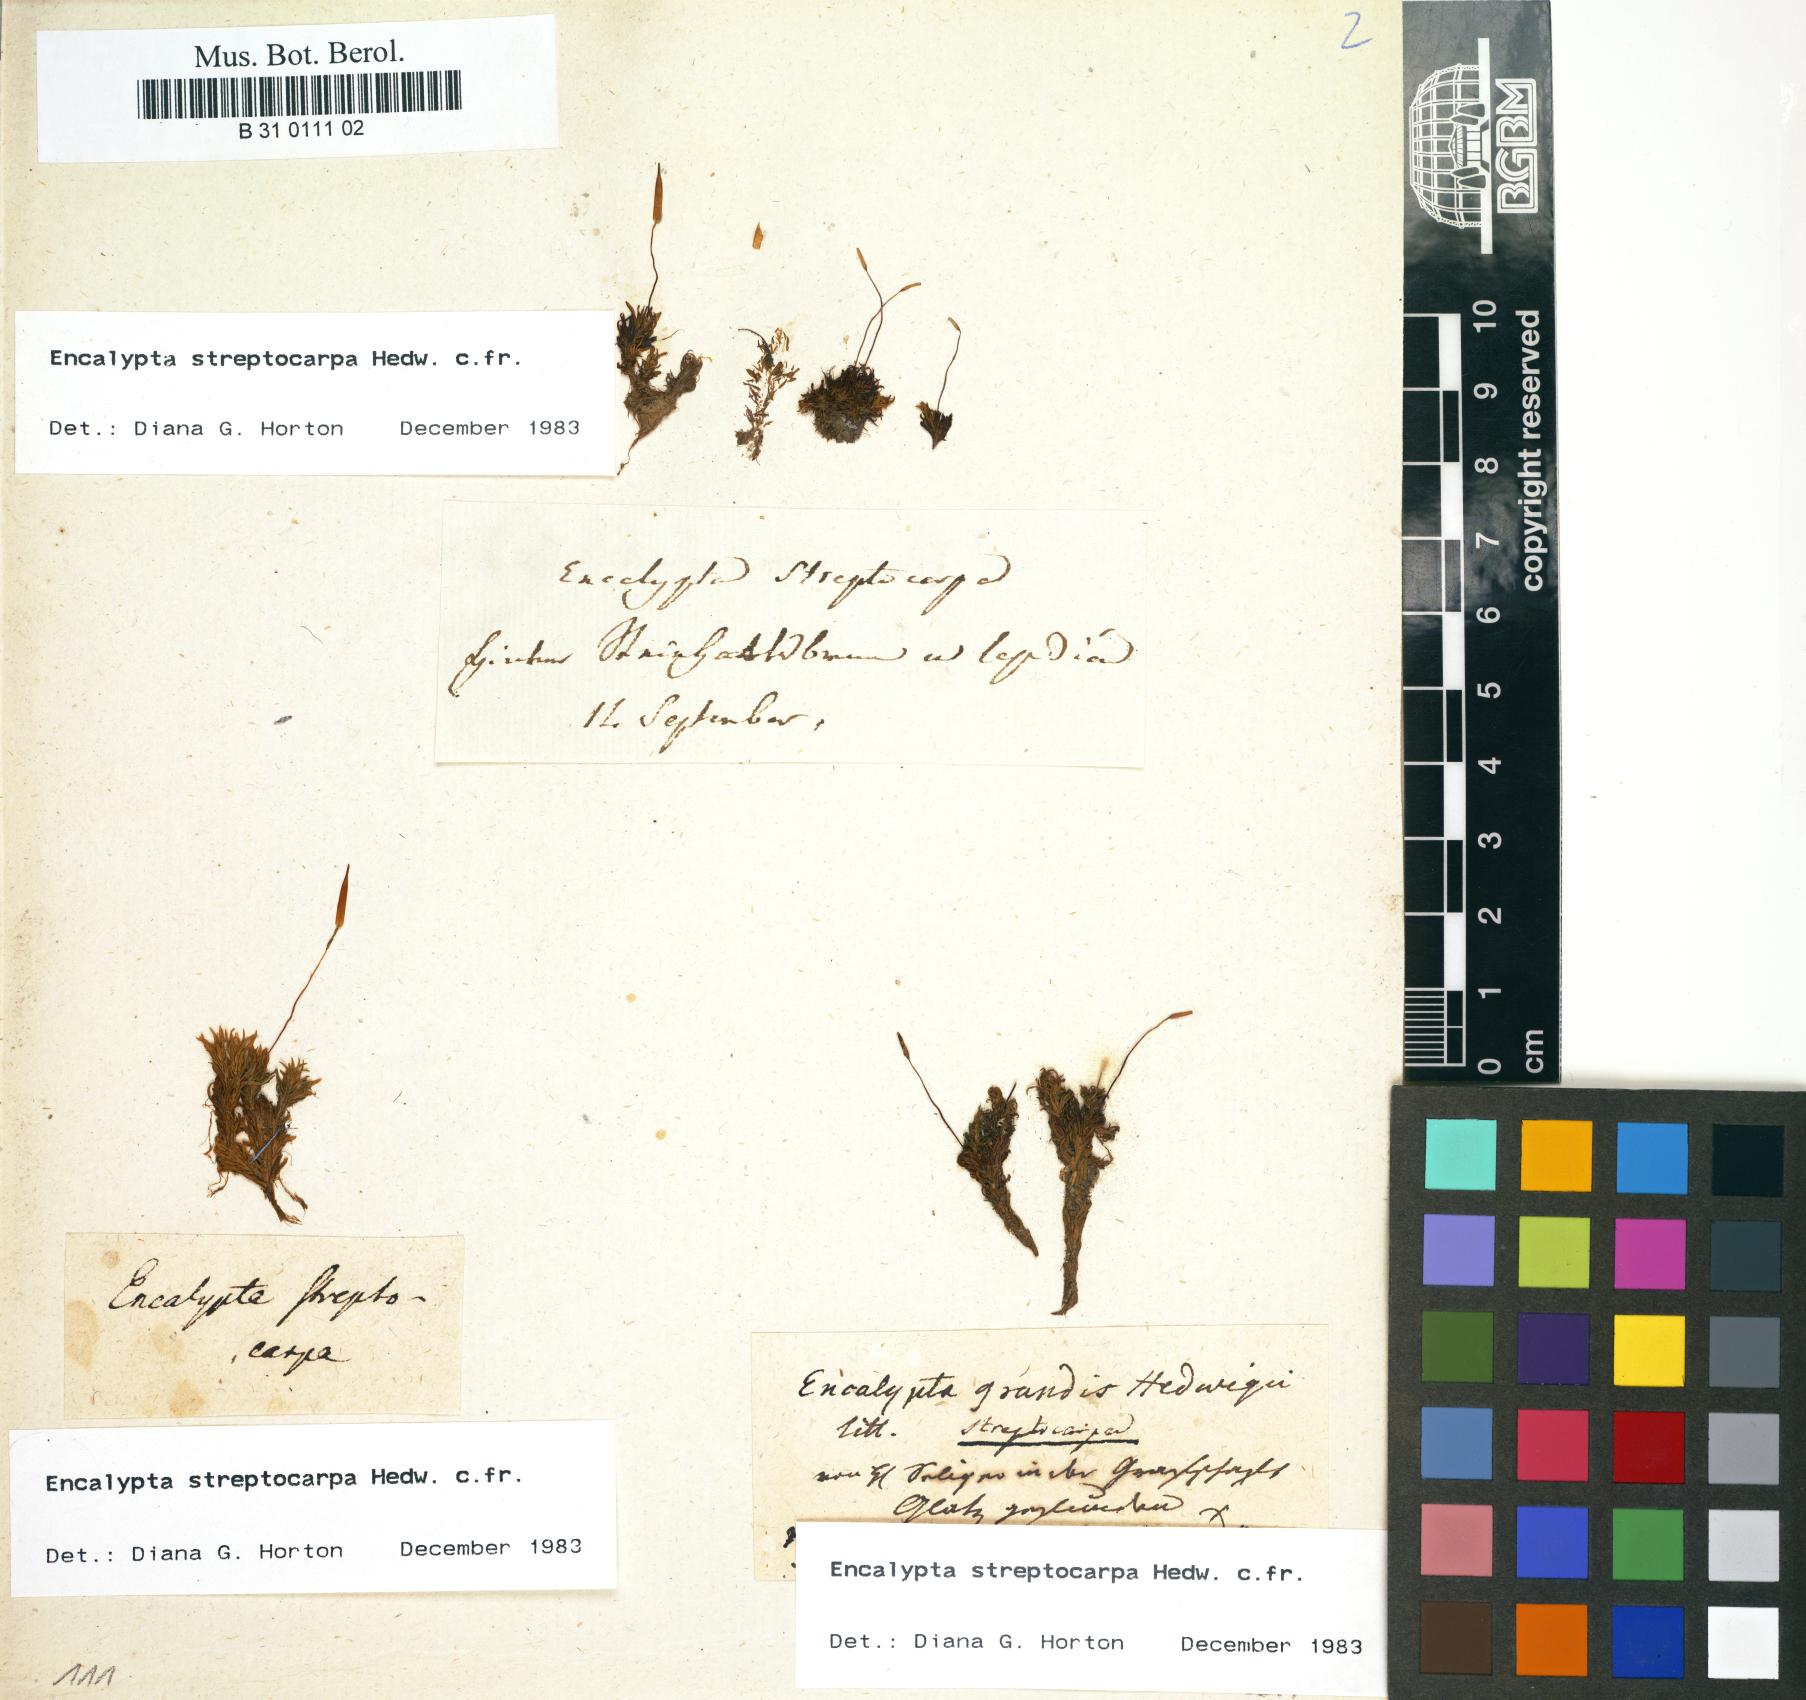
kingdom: Plantae
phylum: Bryophyta
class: Bryopsida
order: Encalyptales
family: Encalyptaceae
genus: Encalypta
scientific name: Encalypta streptocarpa
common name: Spiral extinguisher-moss
